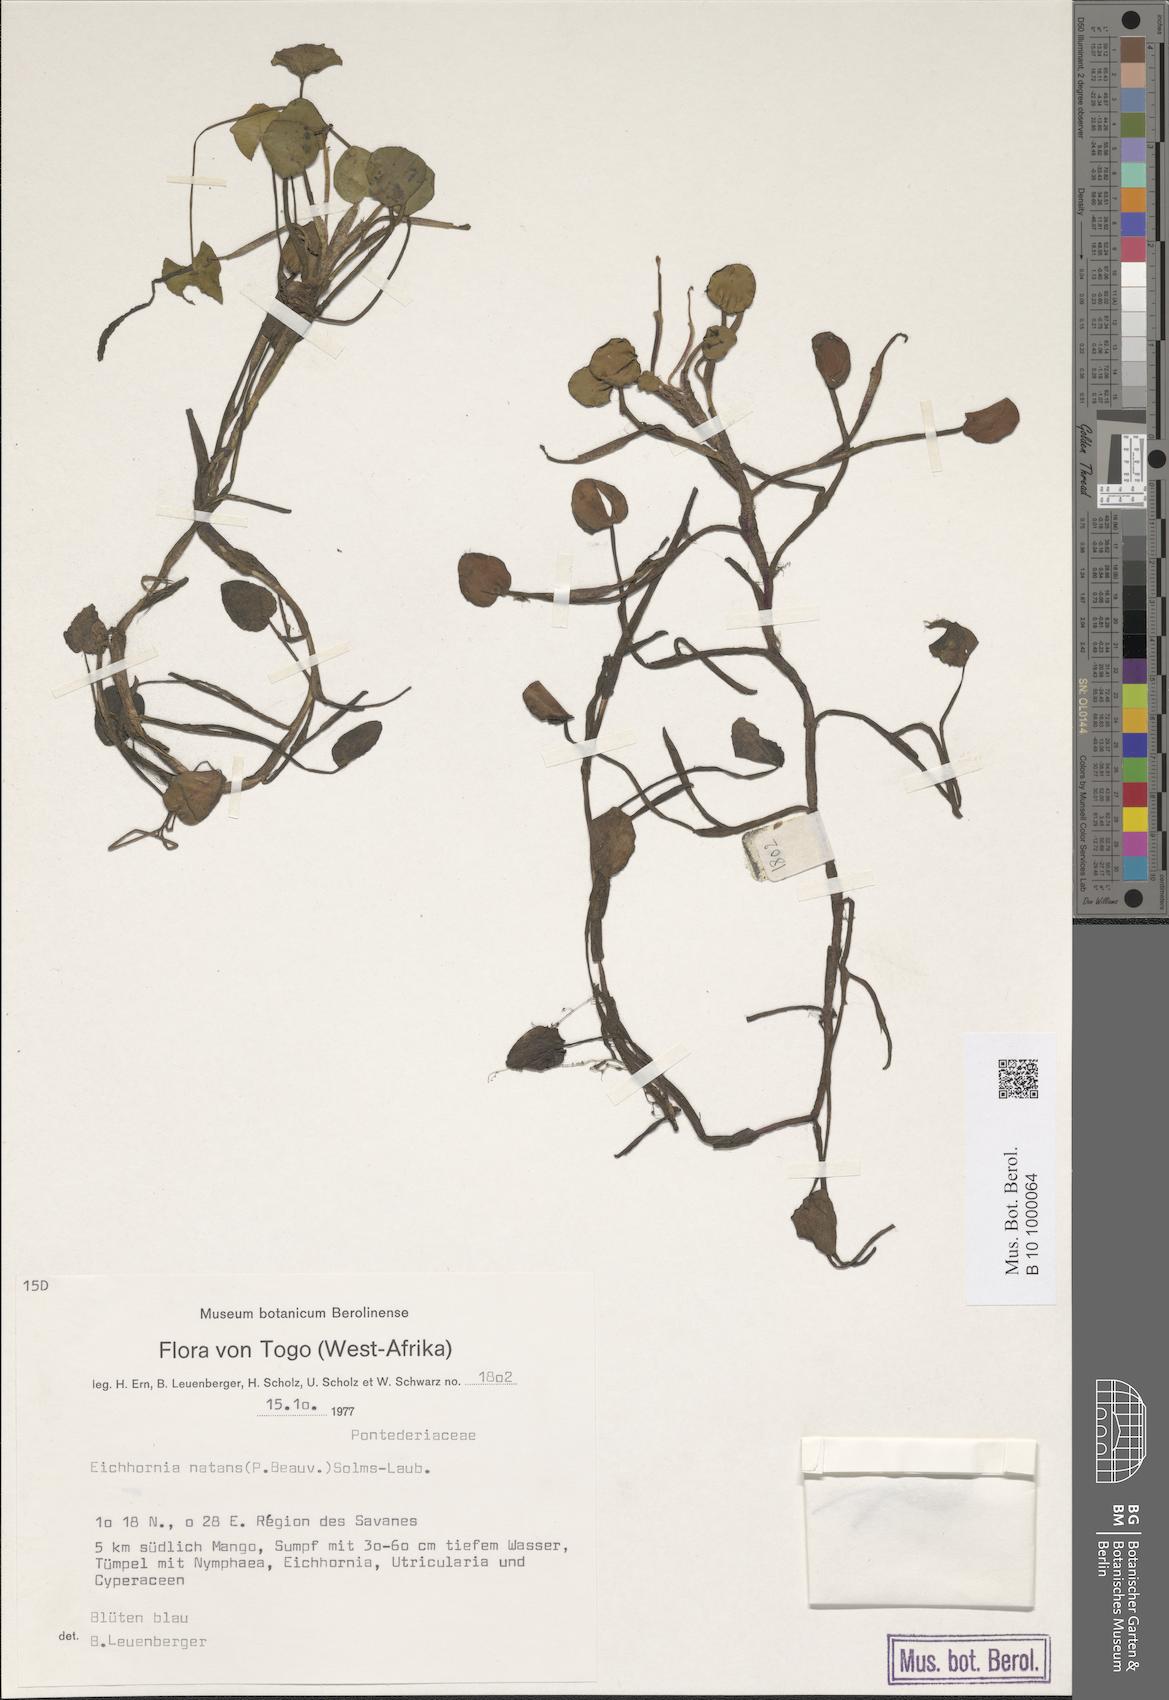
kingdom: Plantae
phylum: Tracheophyta
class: Liliopsida
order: Commelinales
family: Pontederiaceae
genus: Pontederia
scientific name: Pontederia natans
